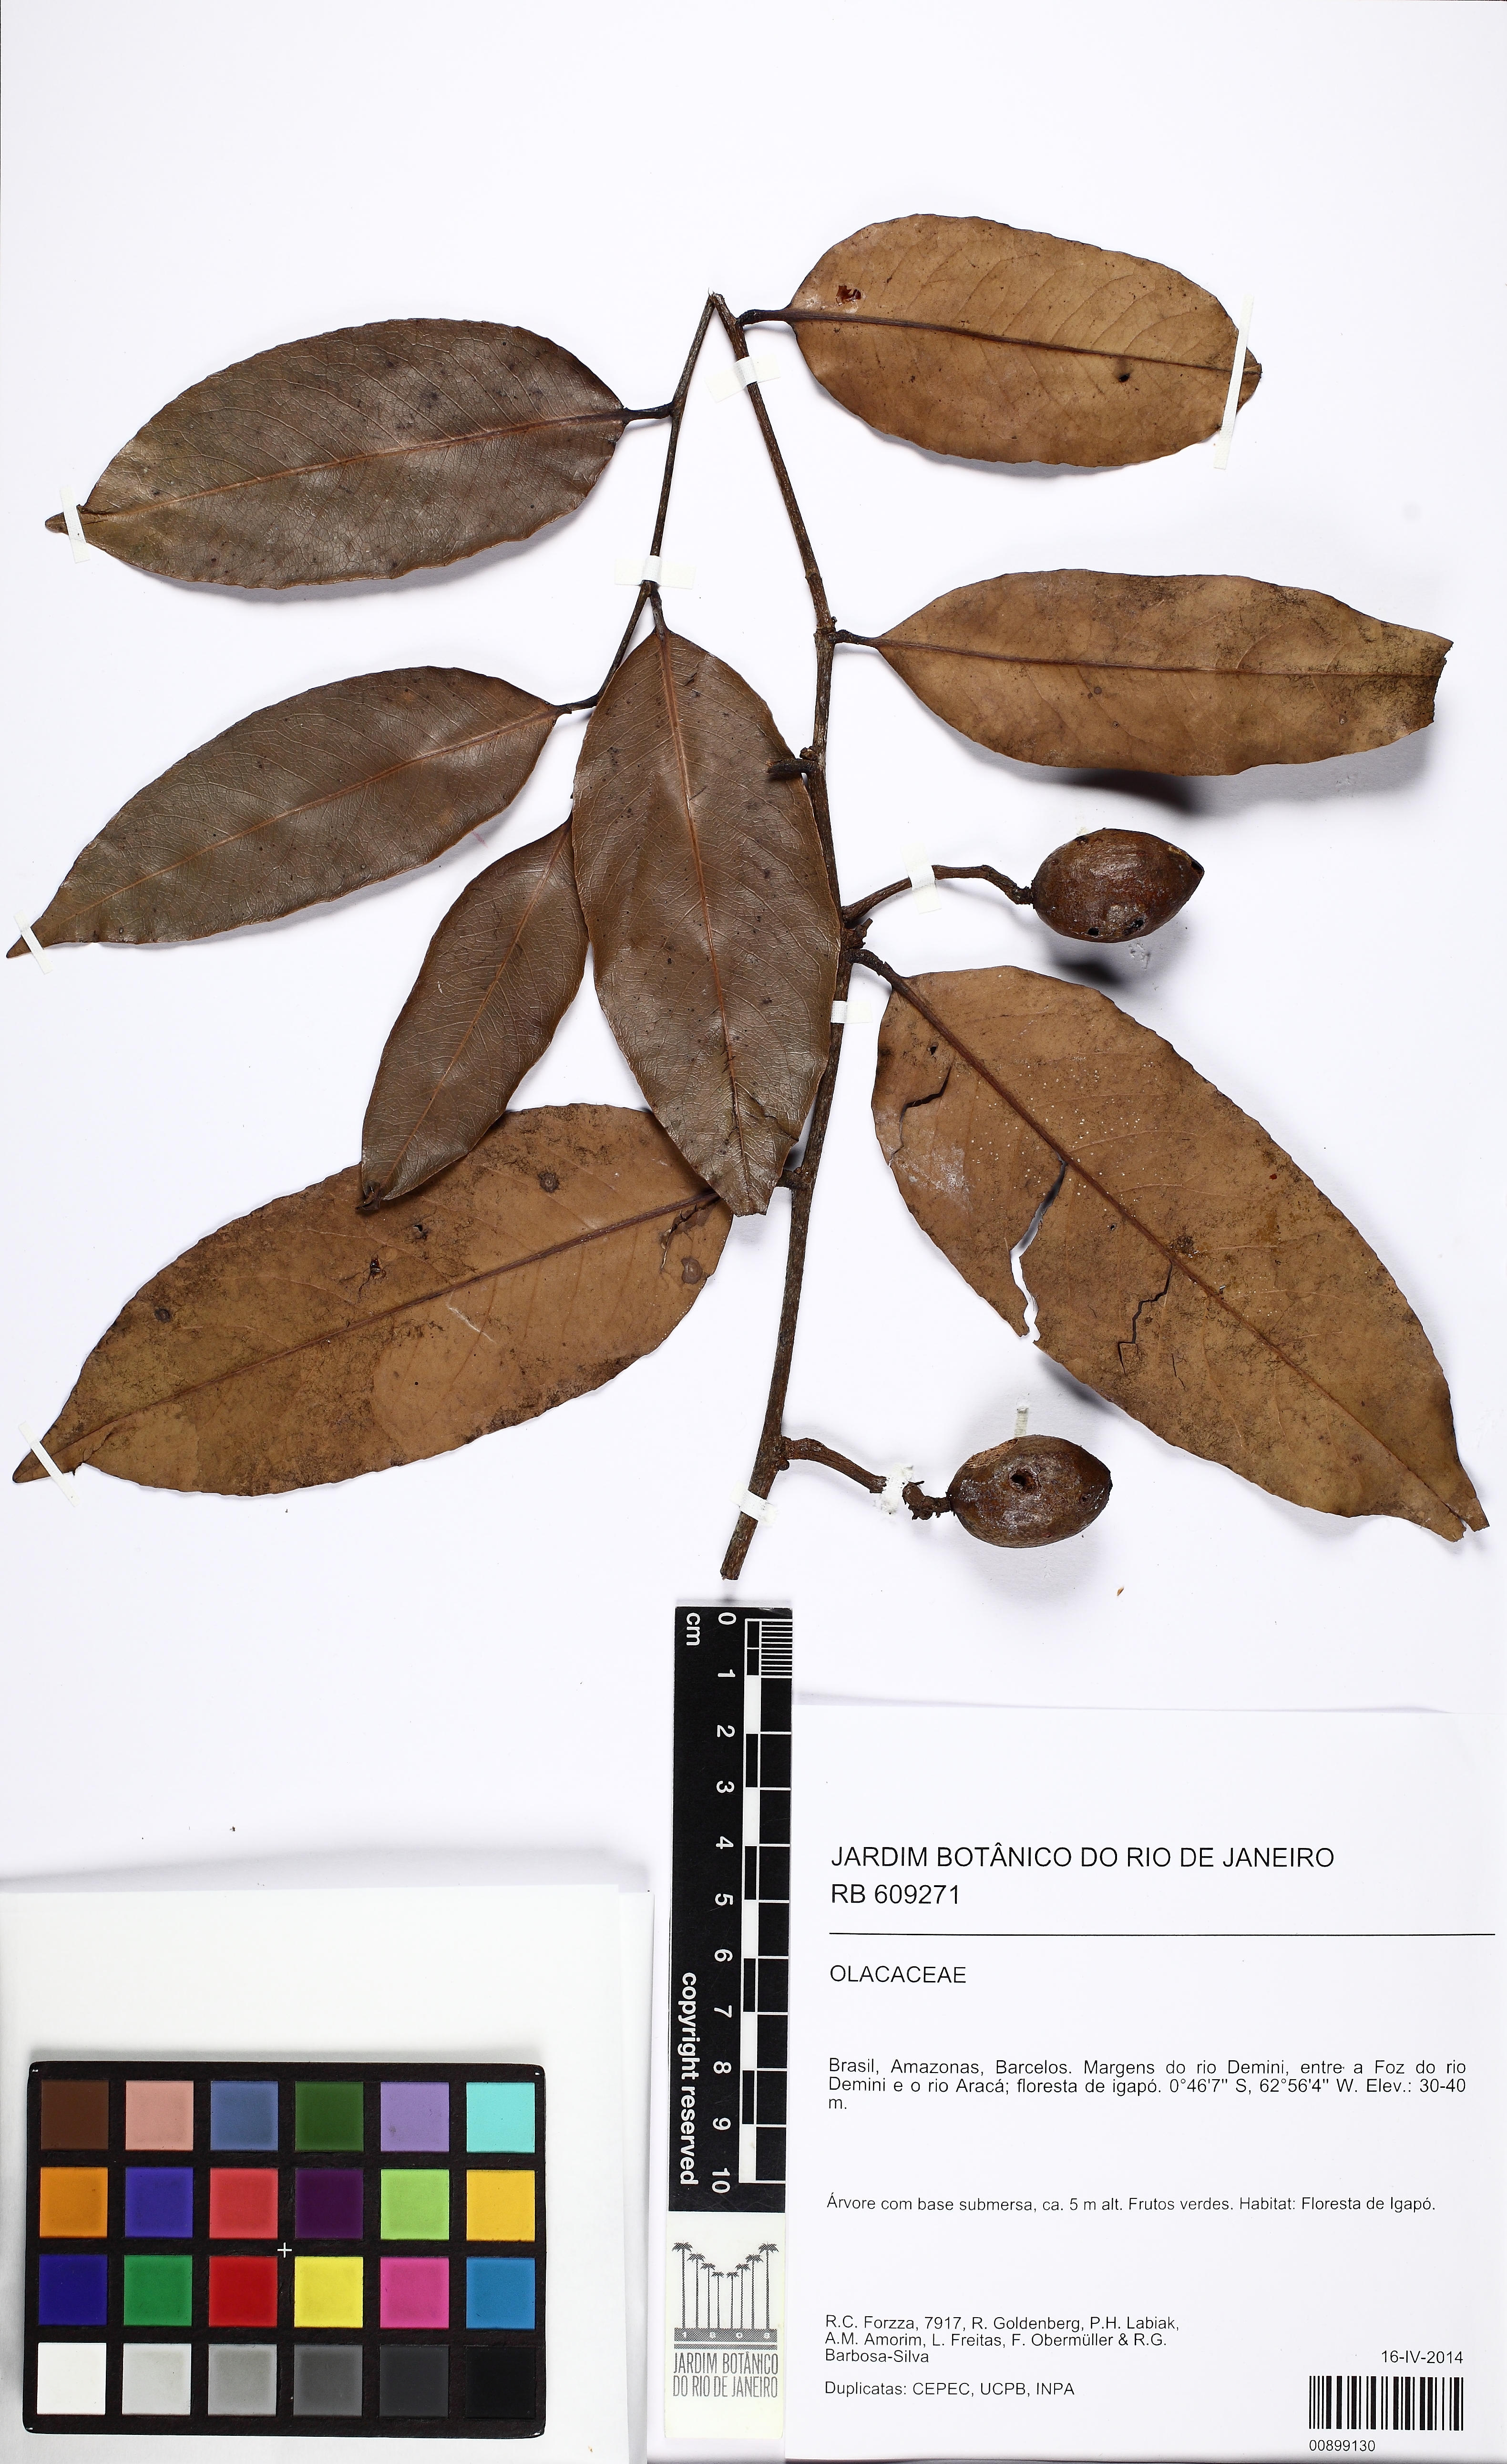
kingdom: Plantae
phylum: Tracheophyta
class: Magnoliopsida
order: Santalales
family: Olacaceae
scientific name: Olacaceae
